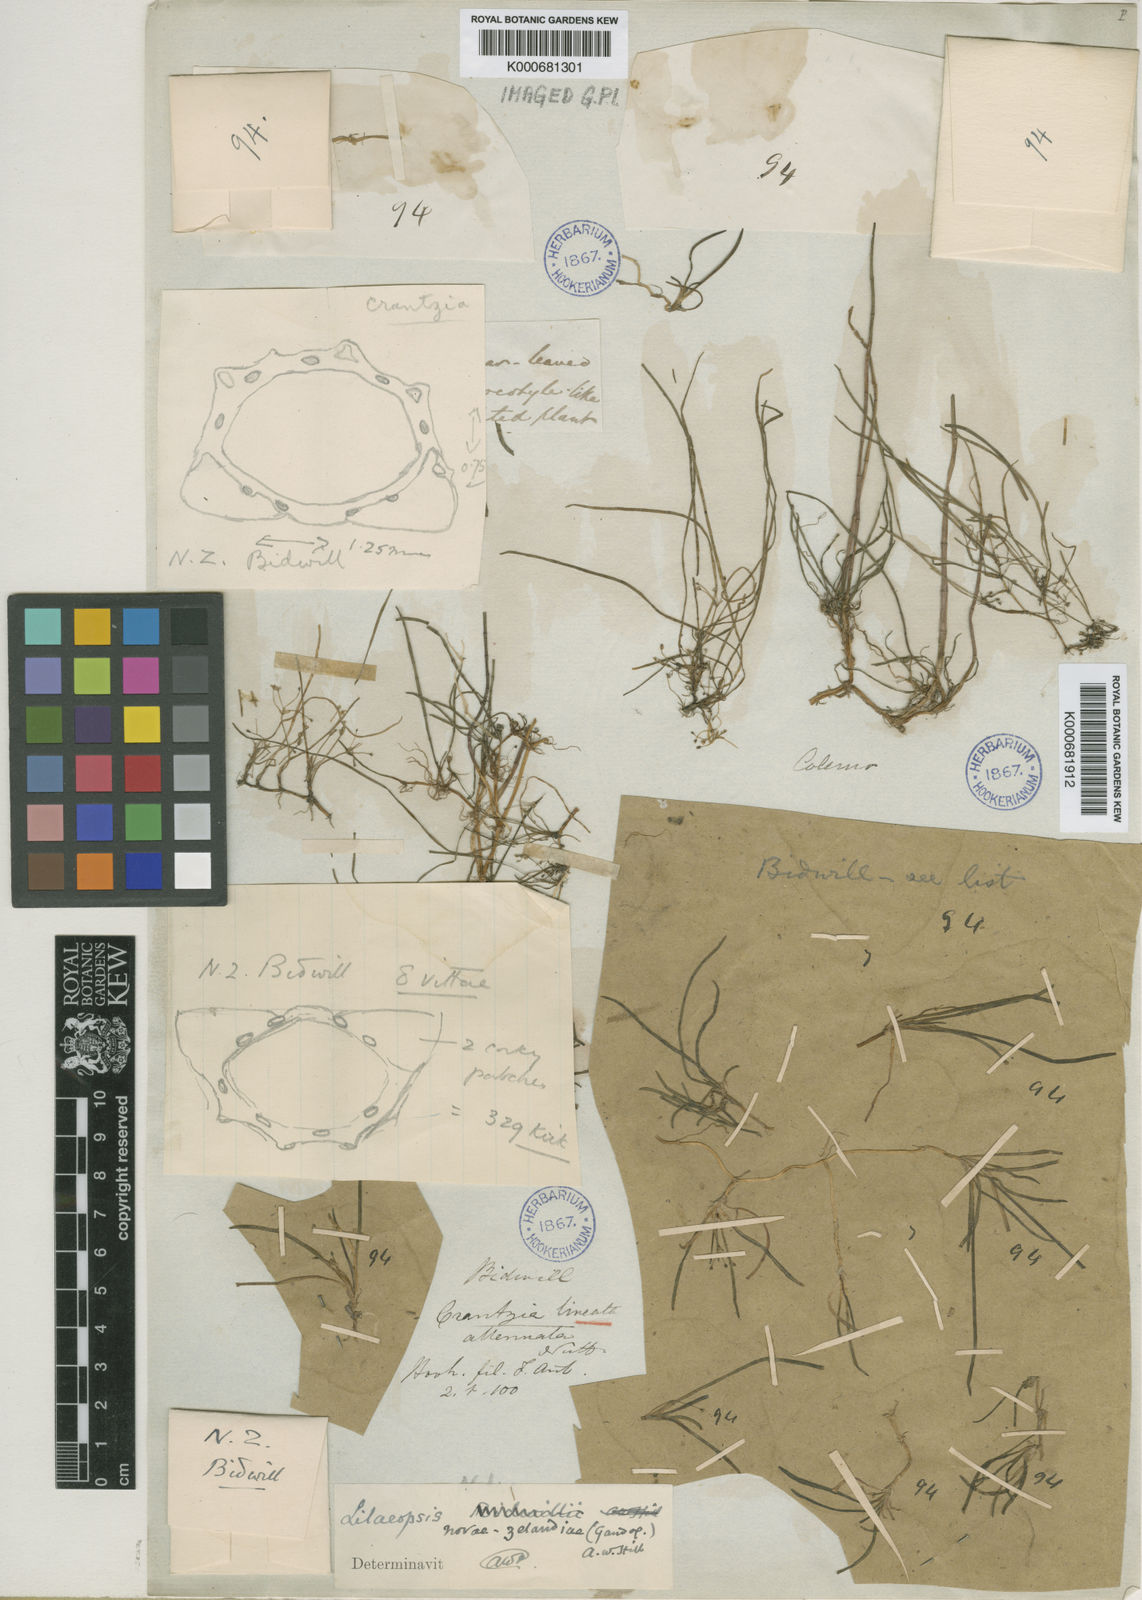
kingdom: Plantae
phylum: Tracheophyta
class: Magnoliopsida
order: Apiales
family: Apiaceae
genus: Lilaeopsis
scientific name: Lilaeopsis novae-zelandiae
